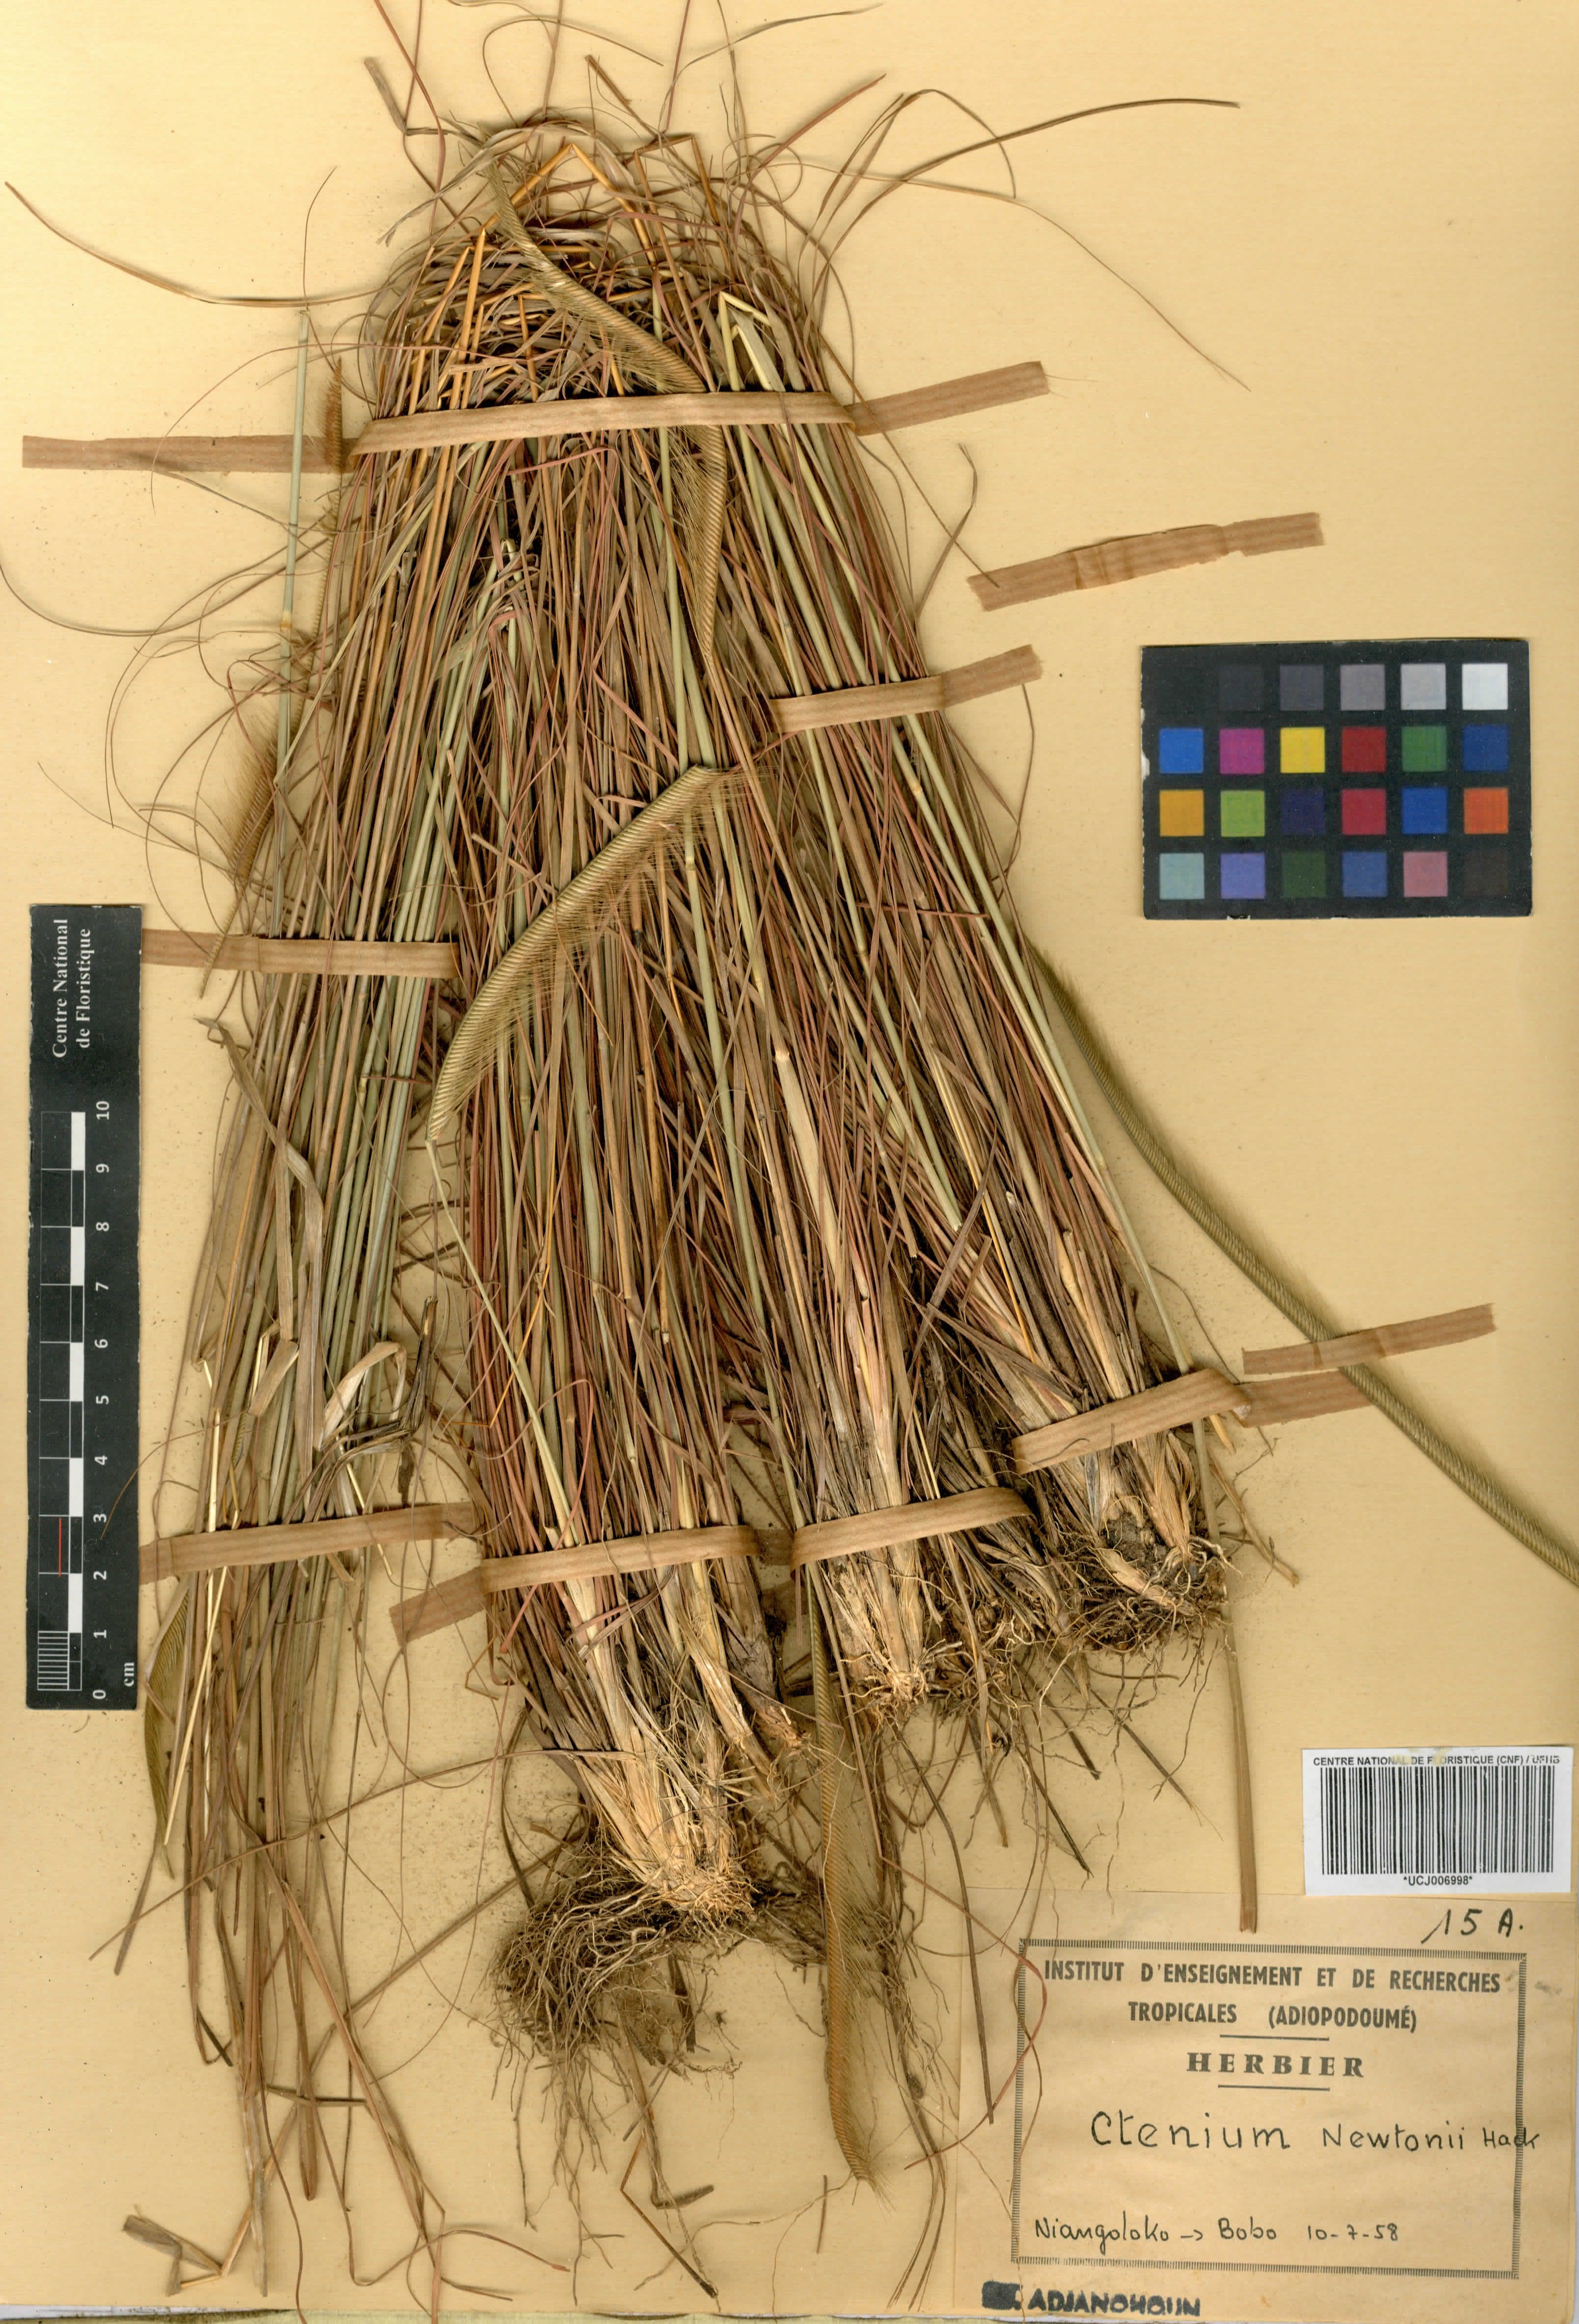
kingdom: Plantae
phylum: Tracheophyta
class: Liliopsida
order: Poales
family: Poaceae
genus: Ctenium
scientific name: Ctenium newtonii
